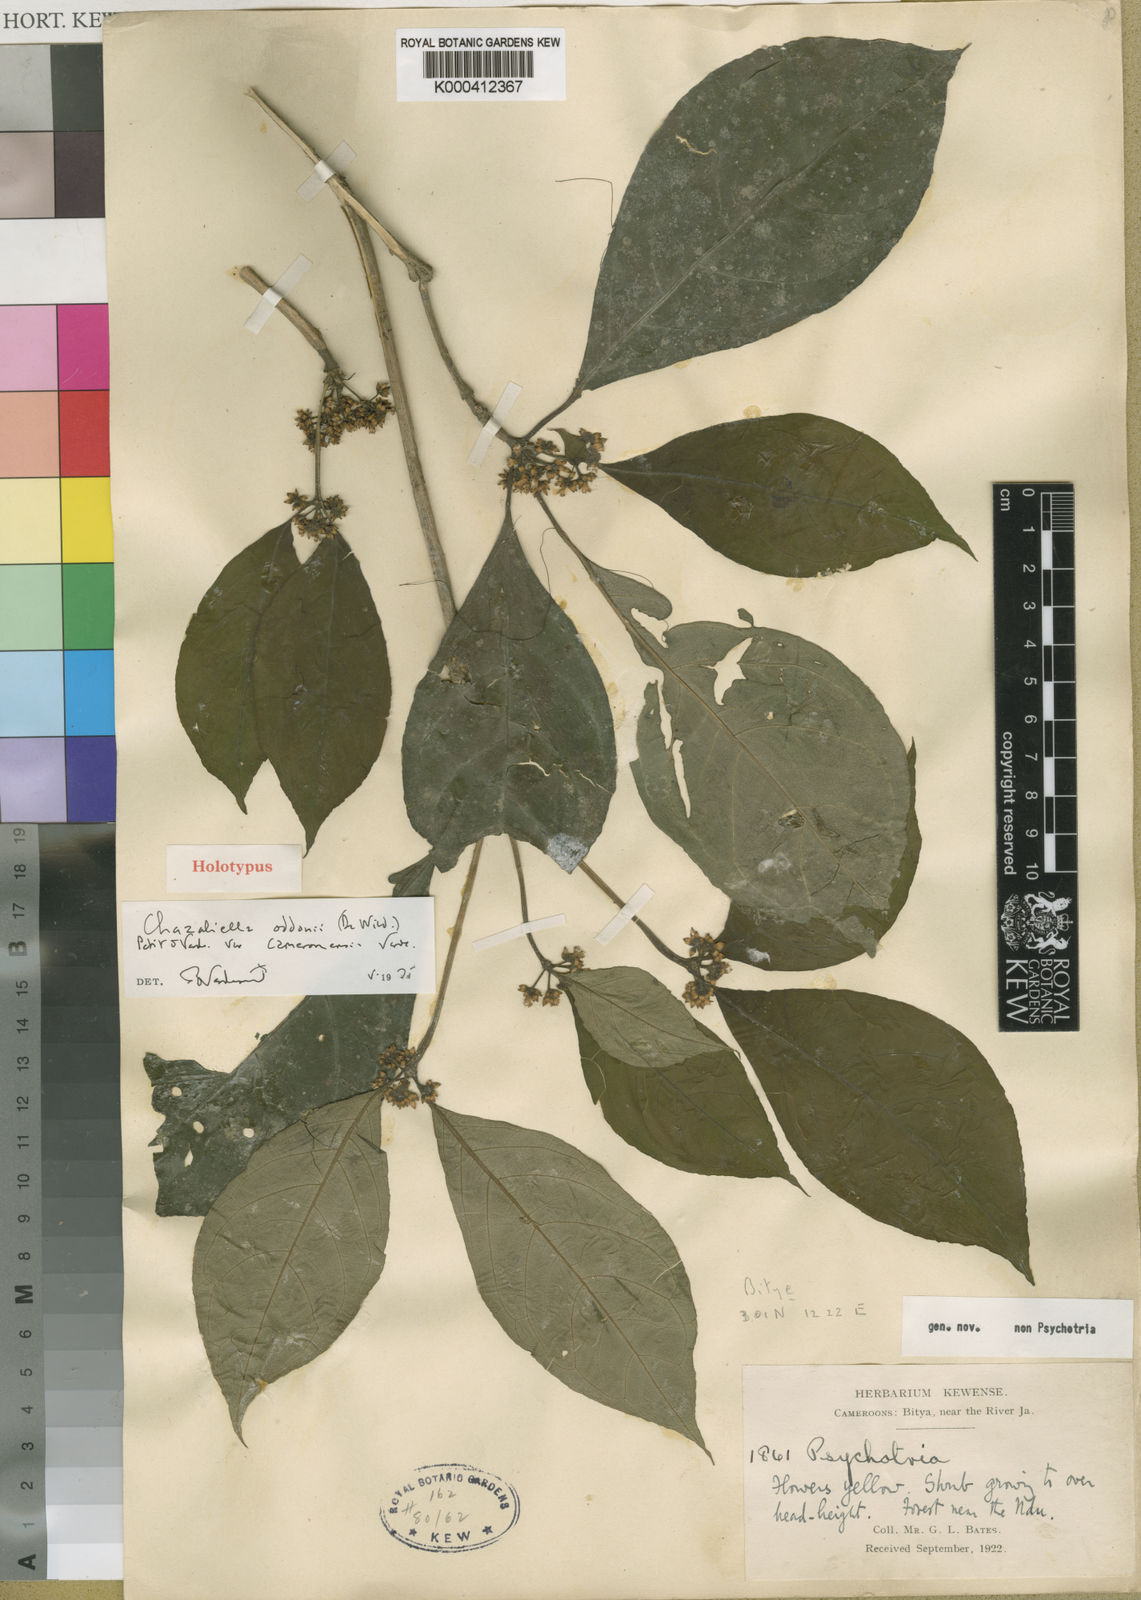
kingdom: Plantae
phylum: Tracheophyta
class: Magnoliopsida
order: Gentianales
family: Rubiaceae
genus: Eumachia
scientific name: Eumachia oddonii
